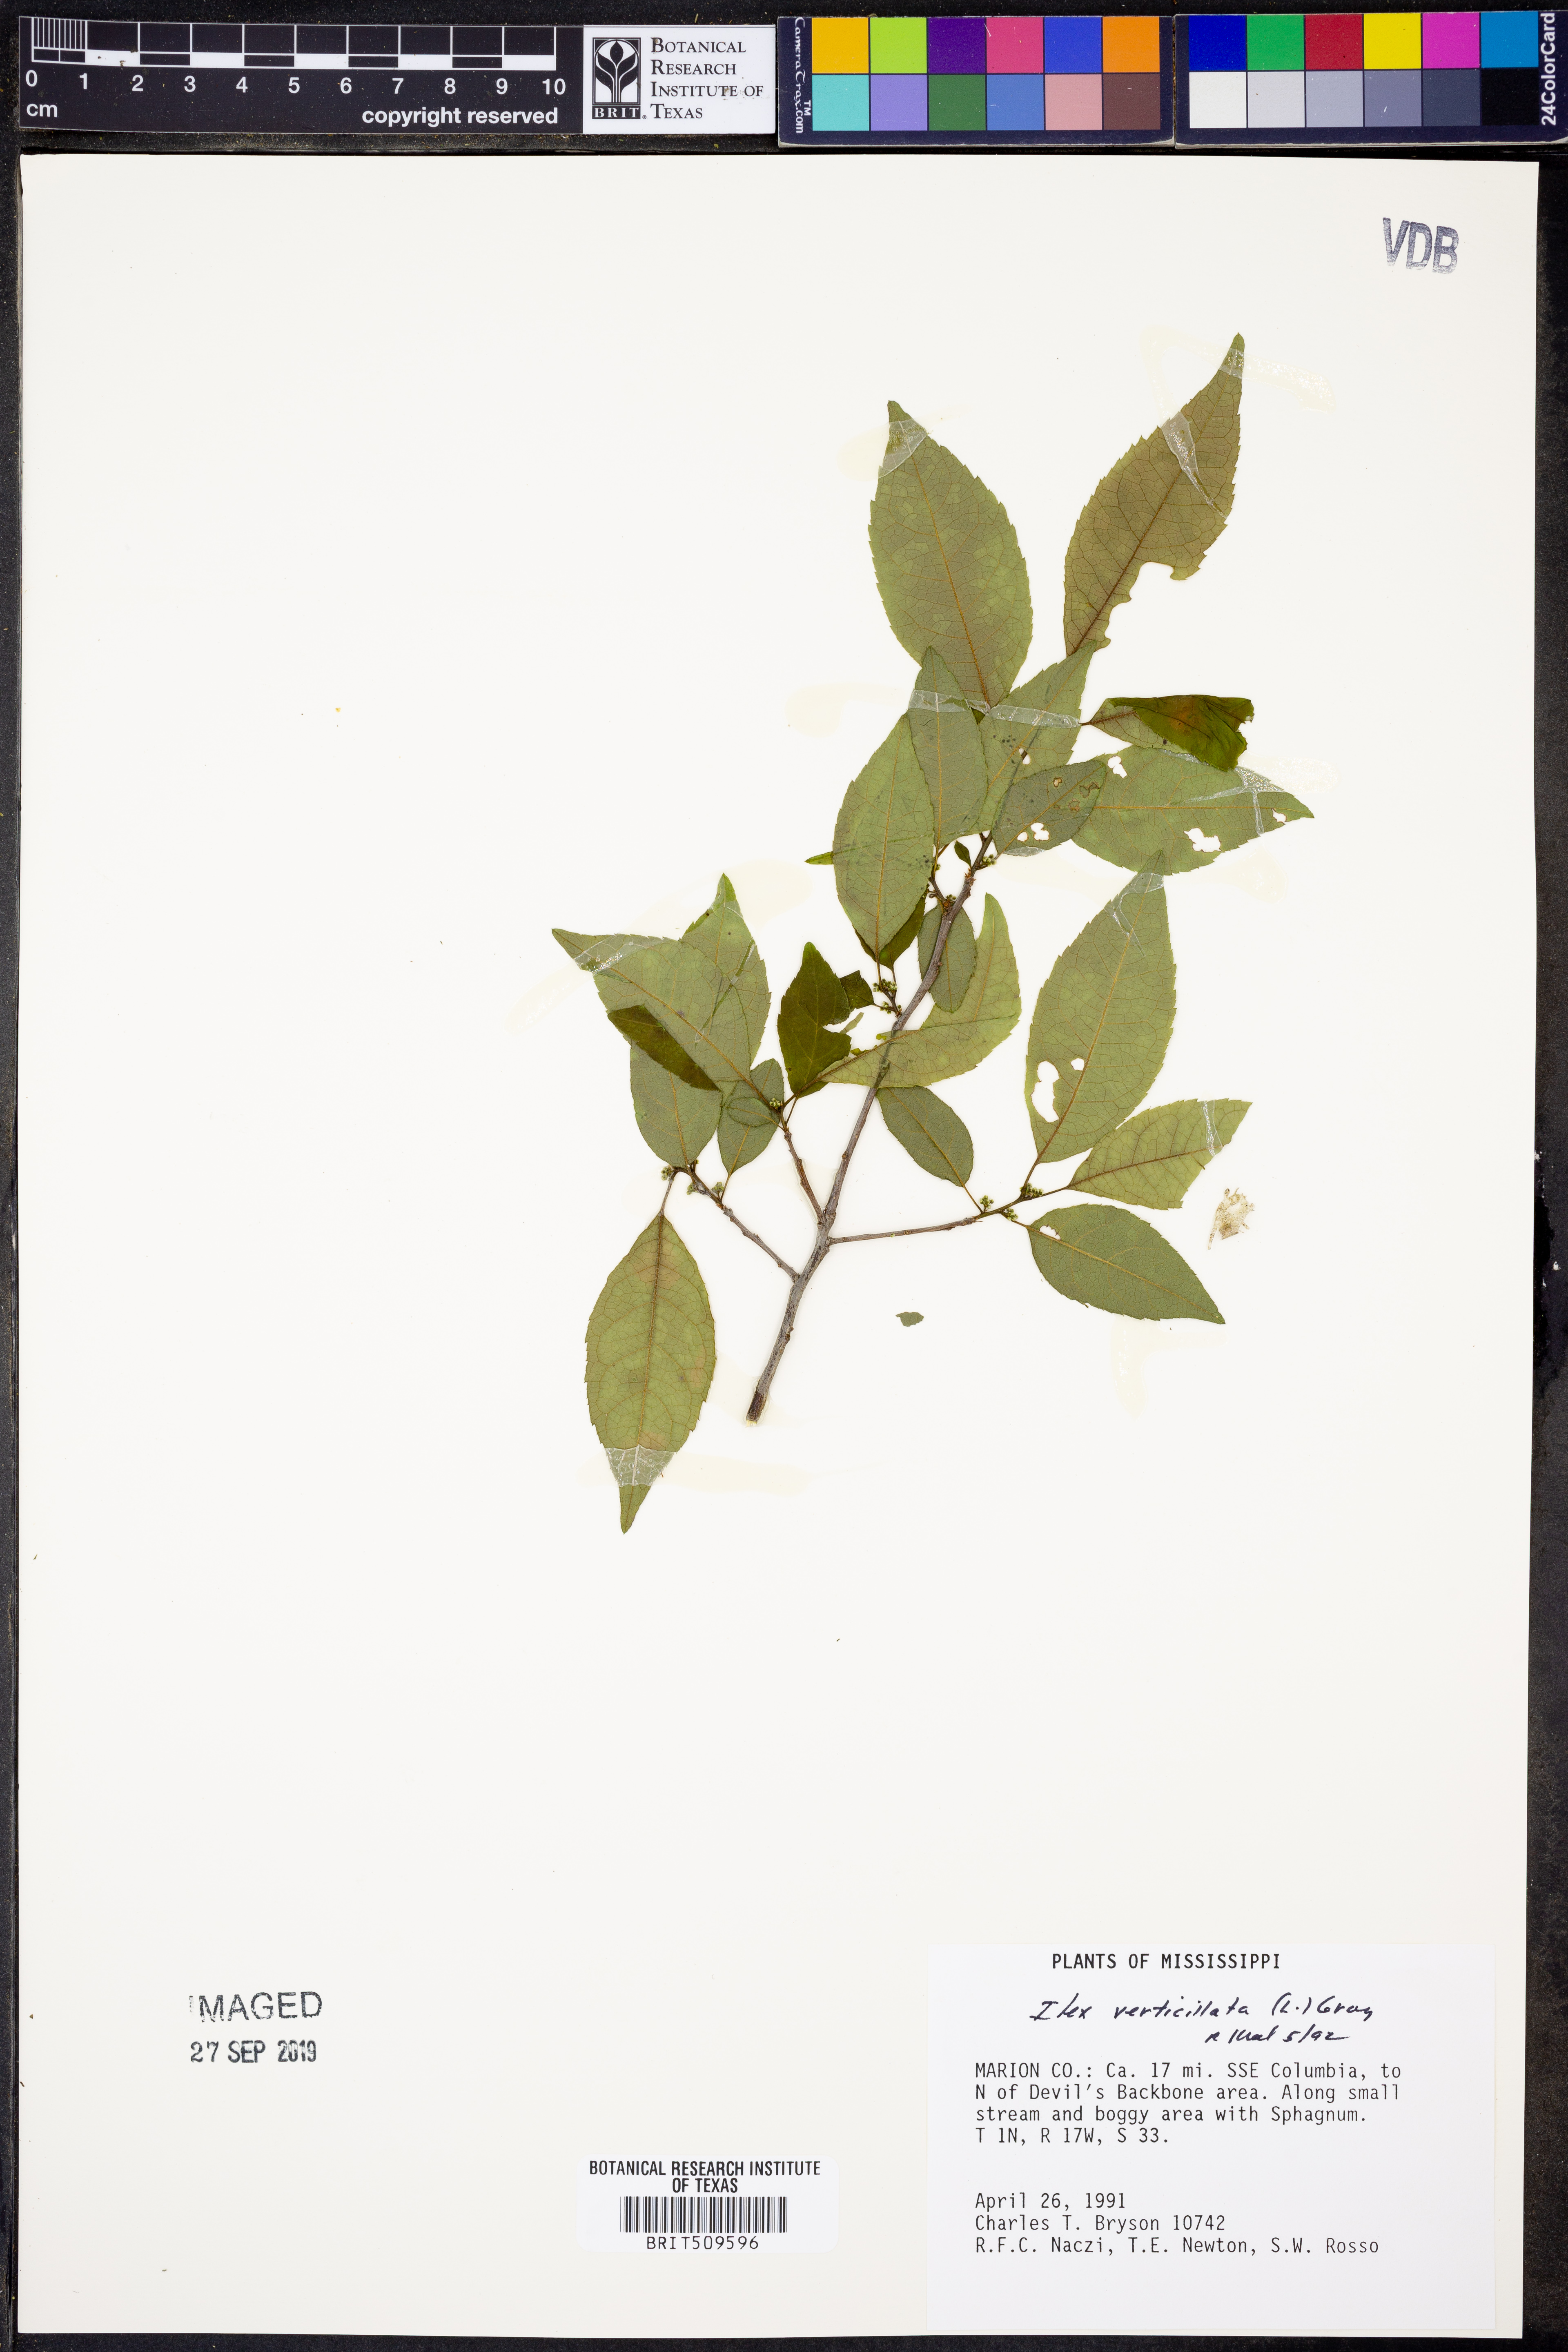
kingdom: Plantae
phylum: Tracheophyta
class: Magnoliopsida
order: Aquifoliales
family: Aquifoliaceae
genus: Ilex
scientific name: Ilex verticillata
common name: Virginia winterberry
